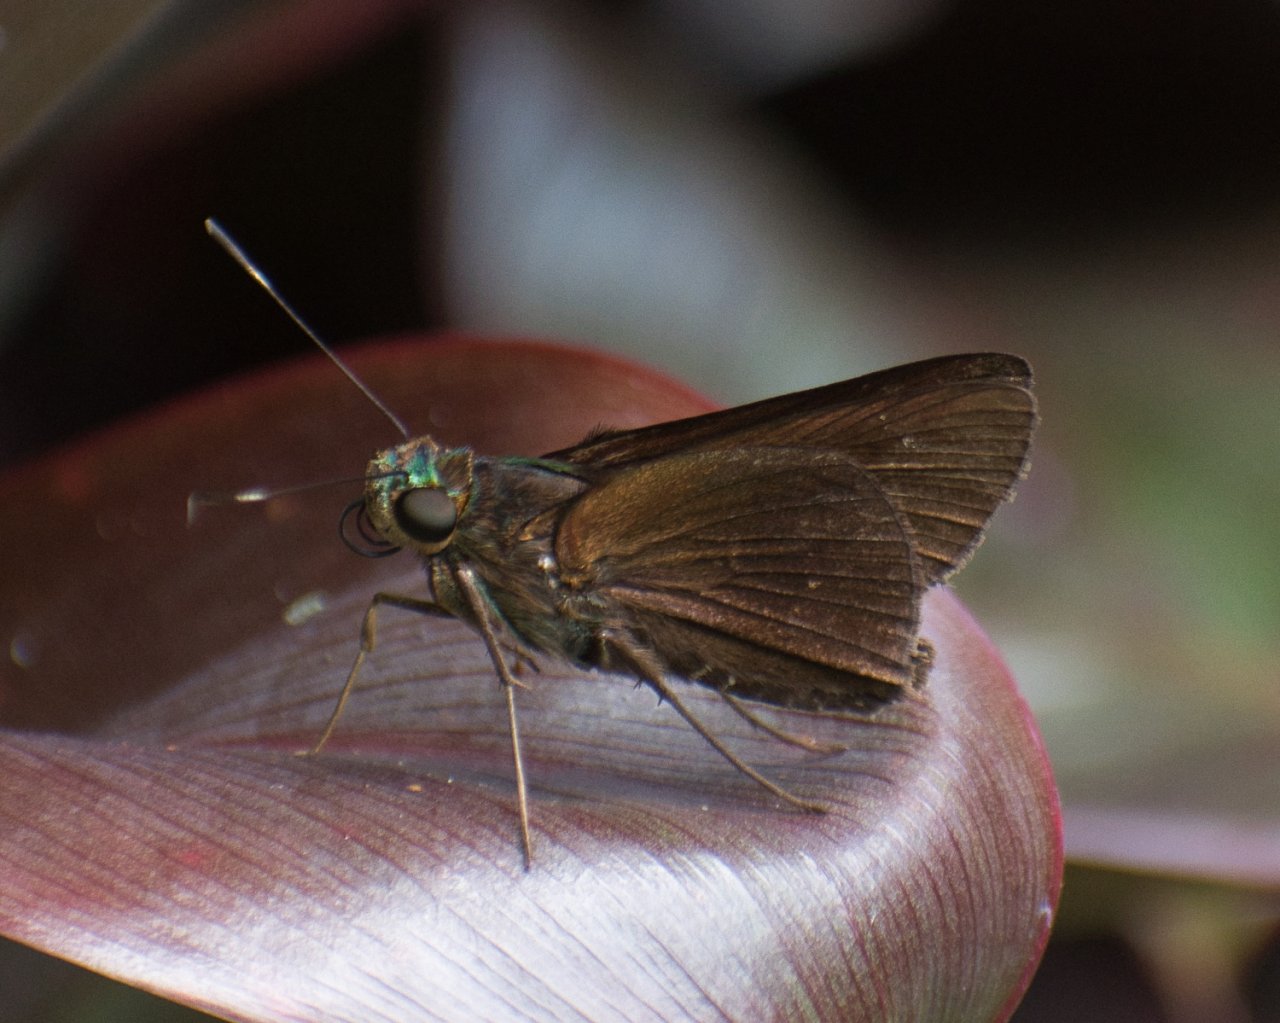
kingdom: Animalia
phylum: Arthropoda
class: Insecta
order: Lepidoptera
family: Hesperiidae
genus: Arita
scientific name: Arita arita
